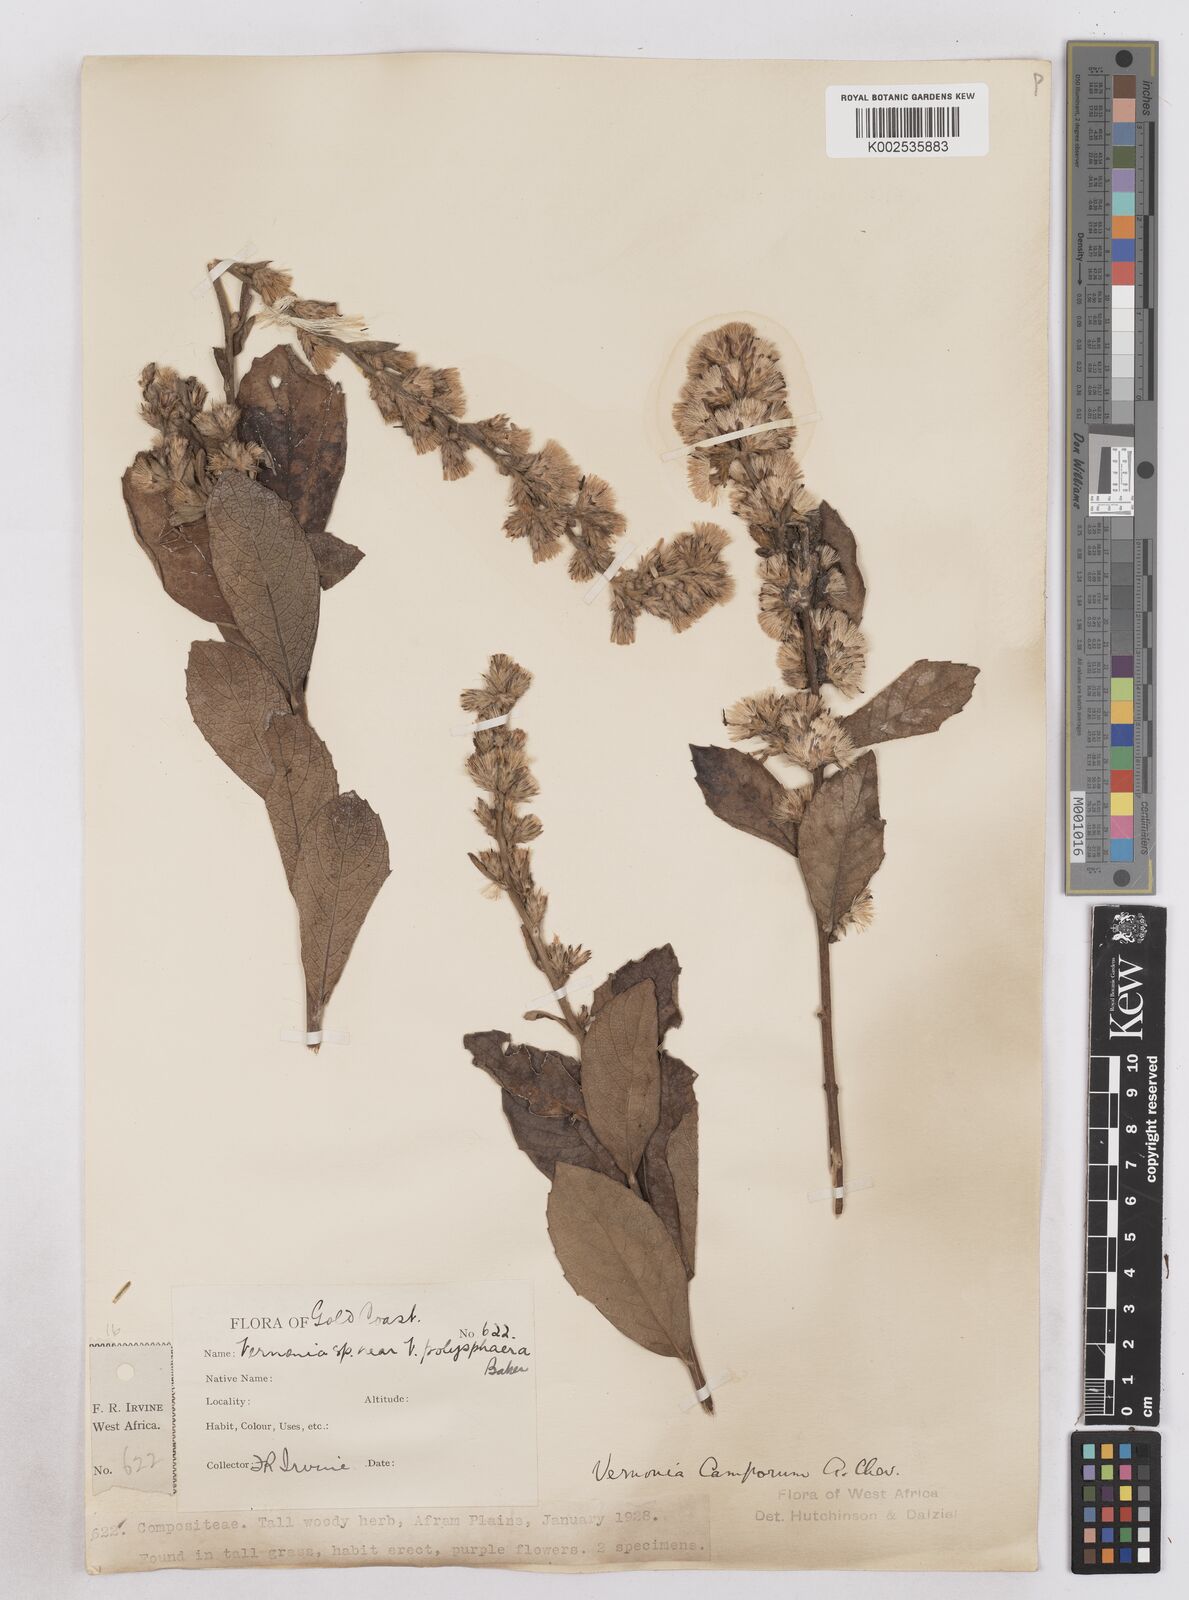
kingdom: Plantae
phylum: Tracheophyta
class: Magnoliopsida
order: Asterales
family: Asteraceae
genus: Vernoniastrum
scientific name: Vernoniastrum camporum
